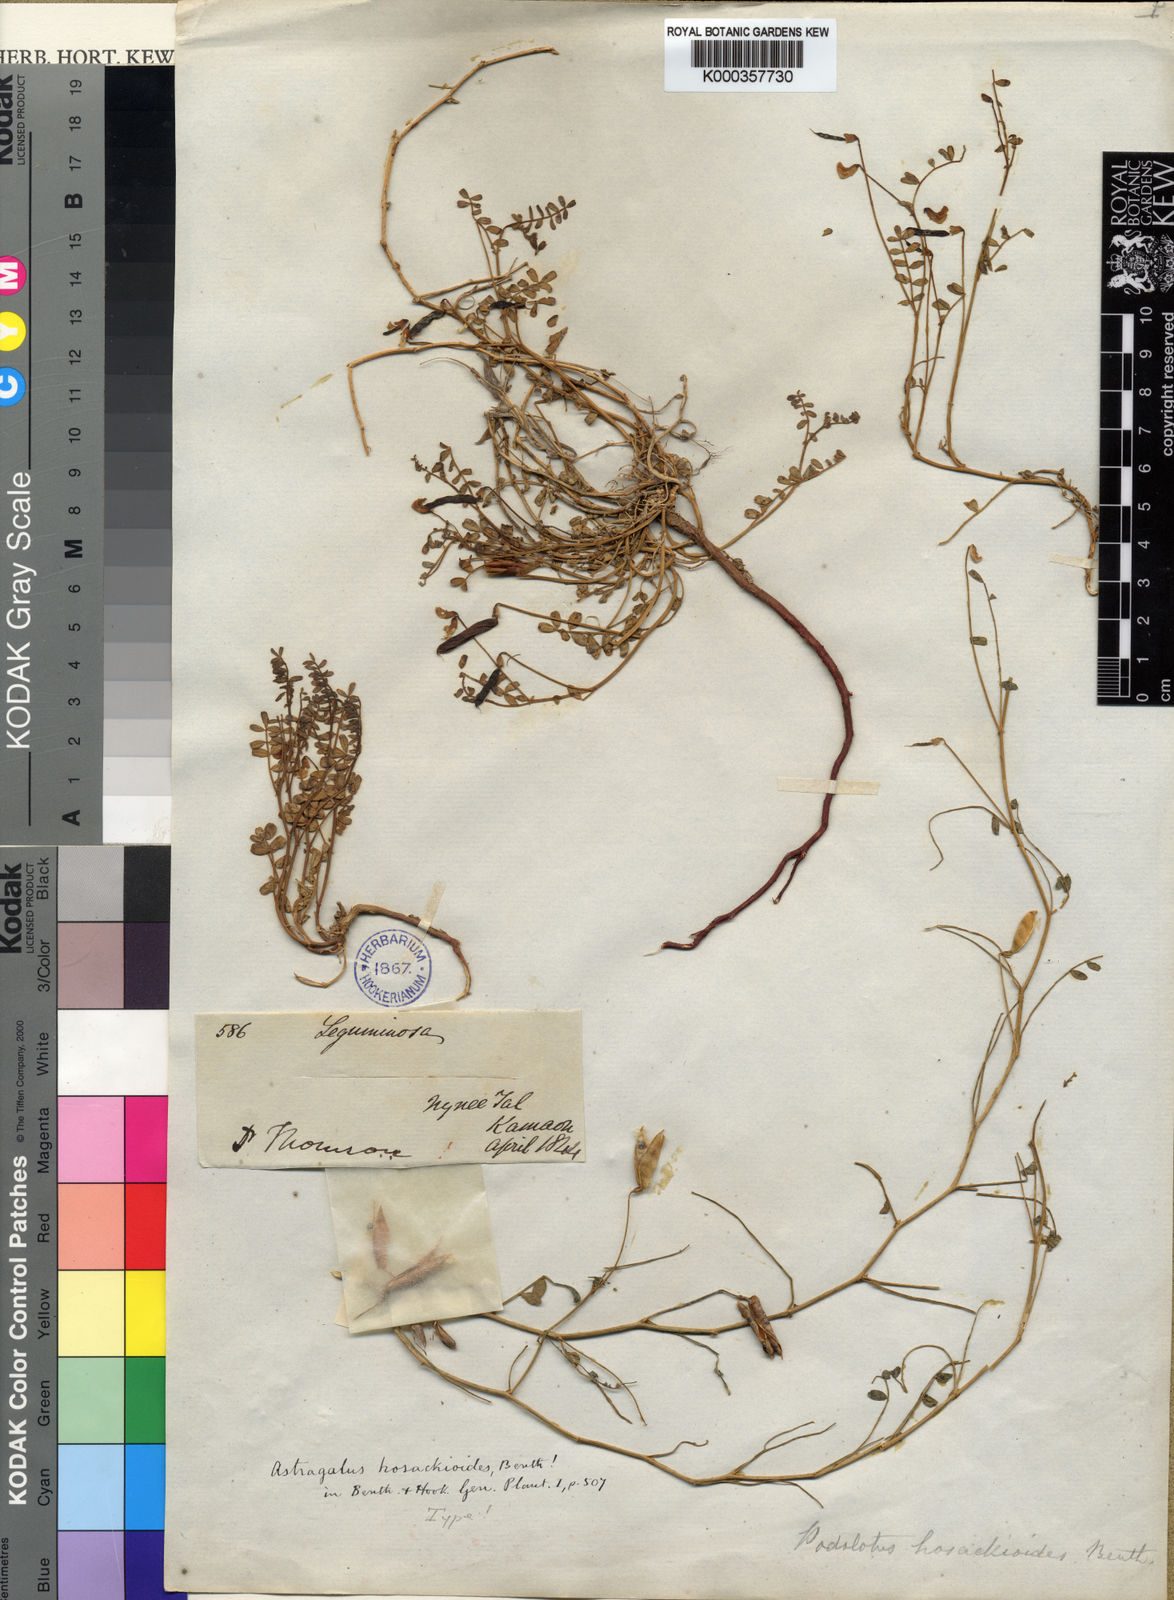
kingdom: Plantae
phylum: Tracheophyta
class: Magnoliopsida
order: Fabales
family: Fabaceae
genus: Podolotus
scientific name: Podolotus hosackioides
